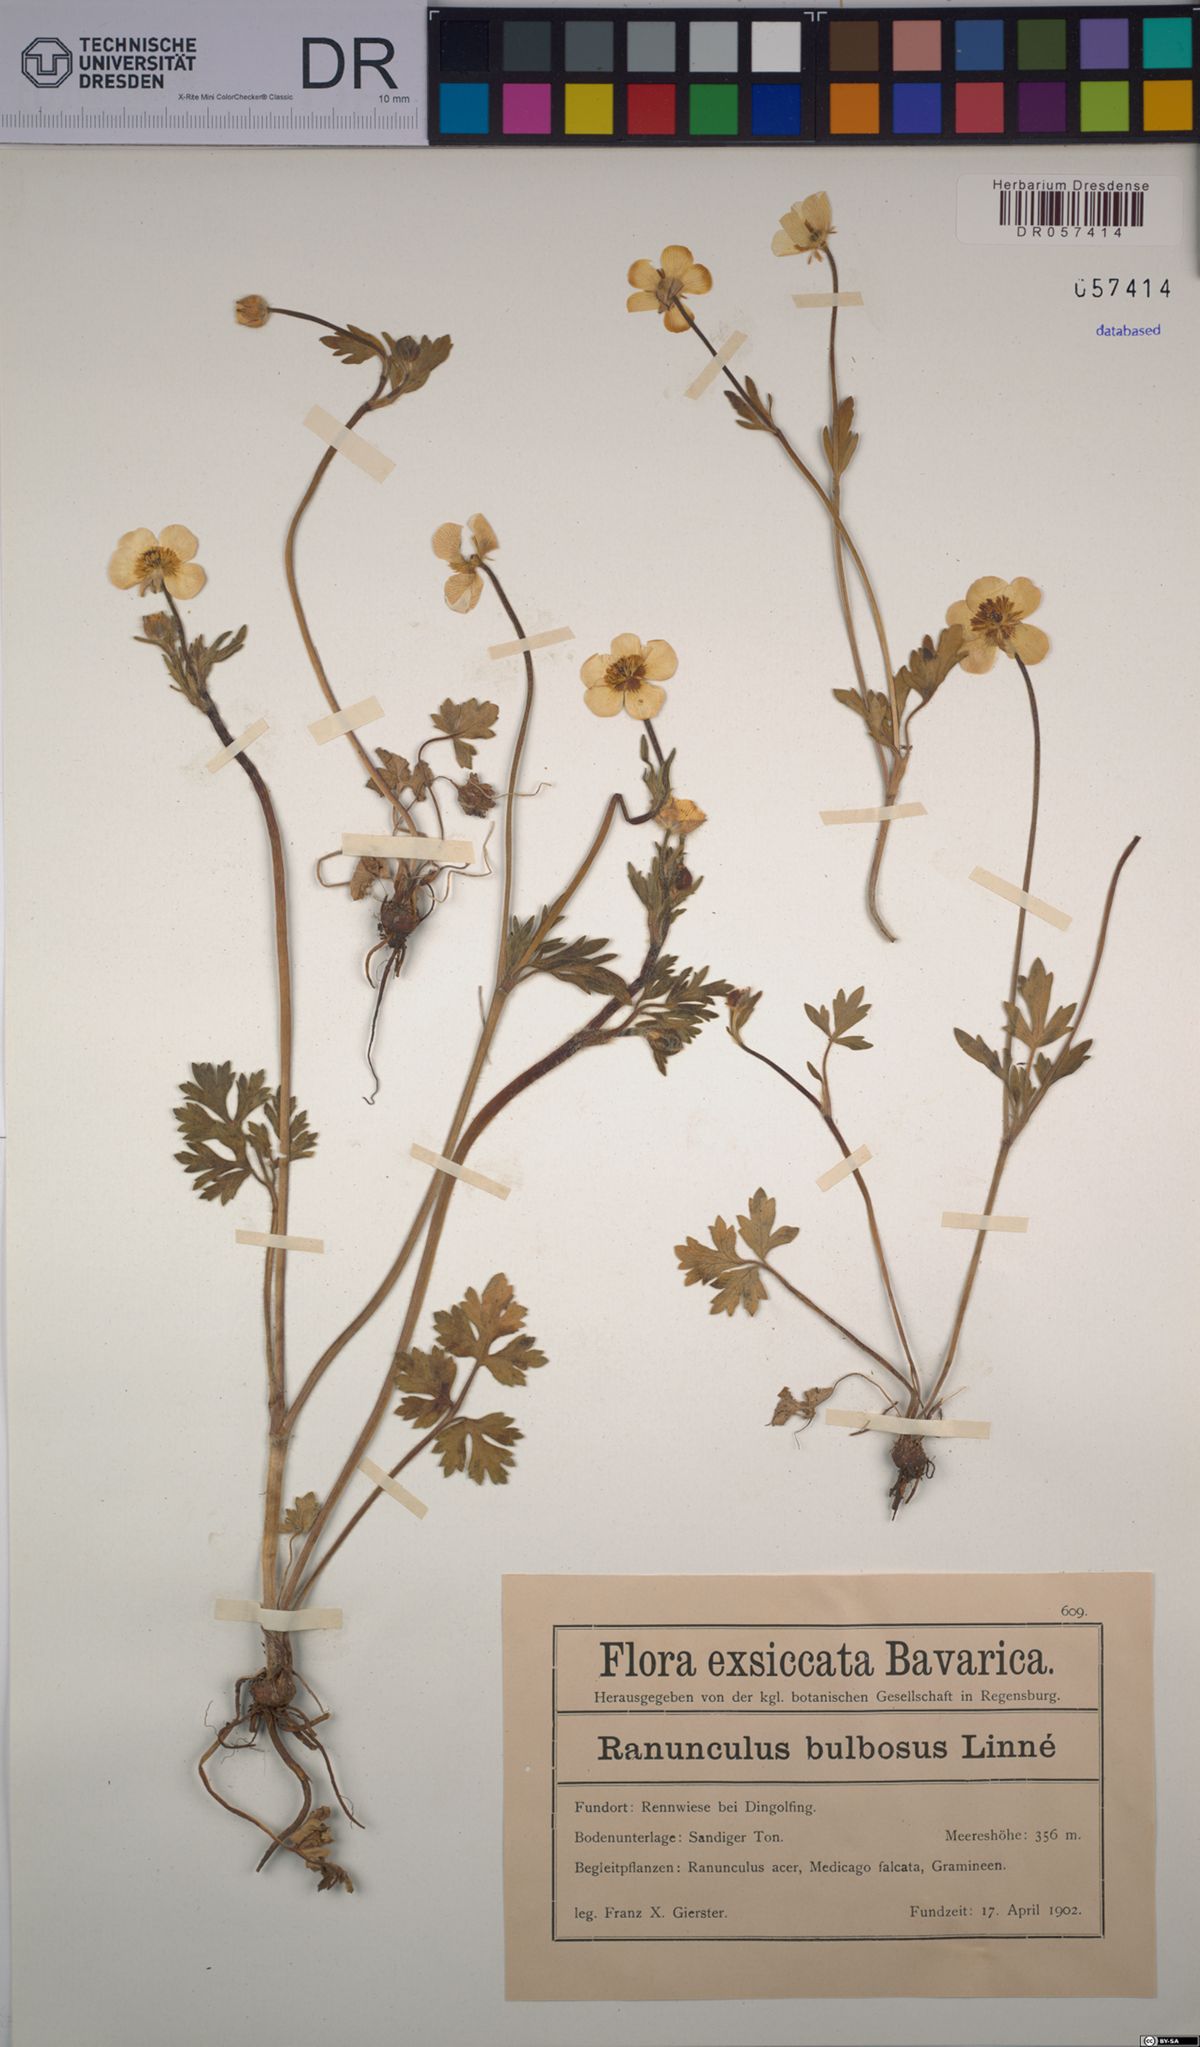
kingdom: Plantae
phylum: Tracheophyta
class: Magnoliopsida
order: Ranunculales
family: Ranunculaceae
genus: Ranunculus
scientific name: Ranunculus bulbosus
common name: Bulbous buttercup
